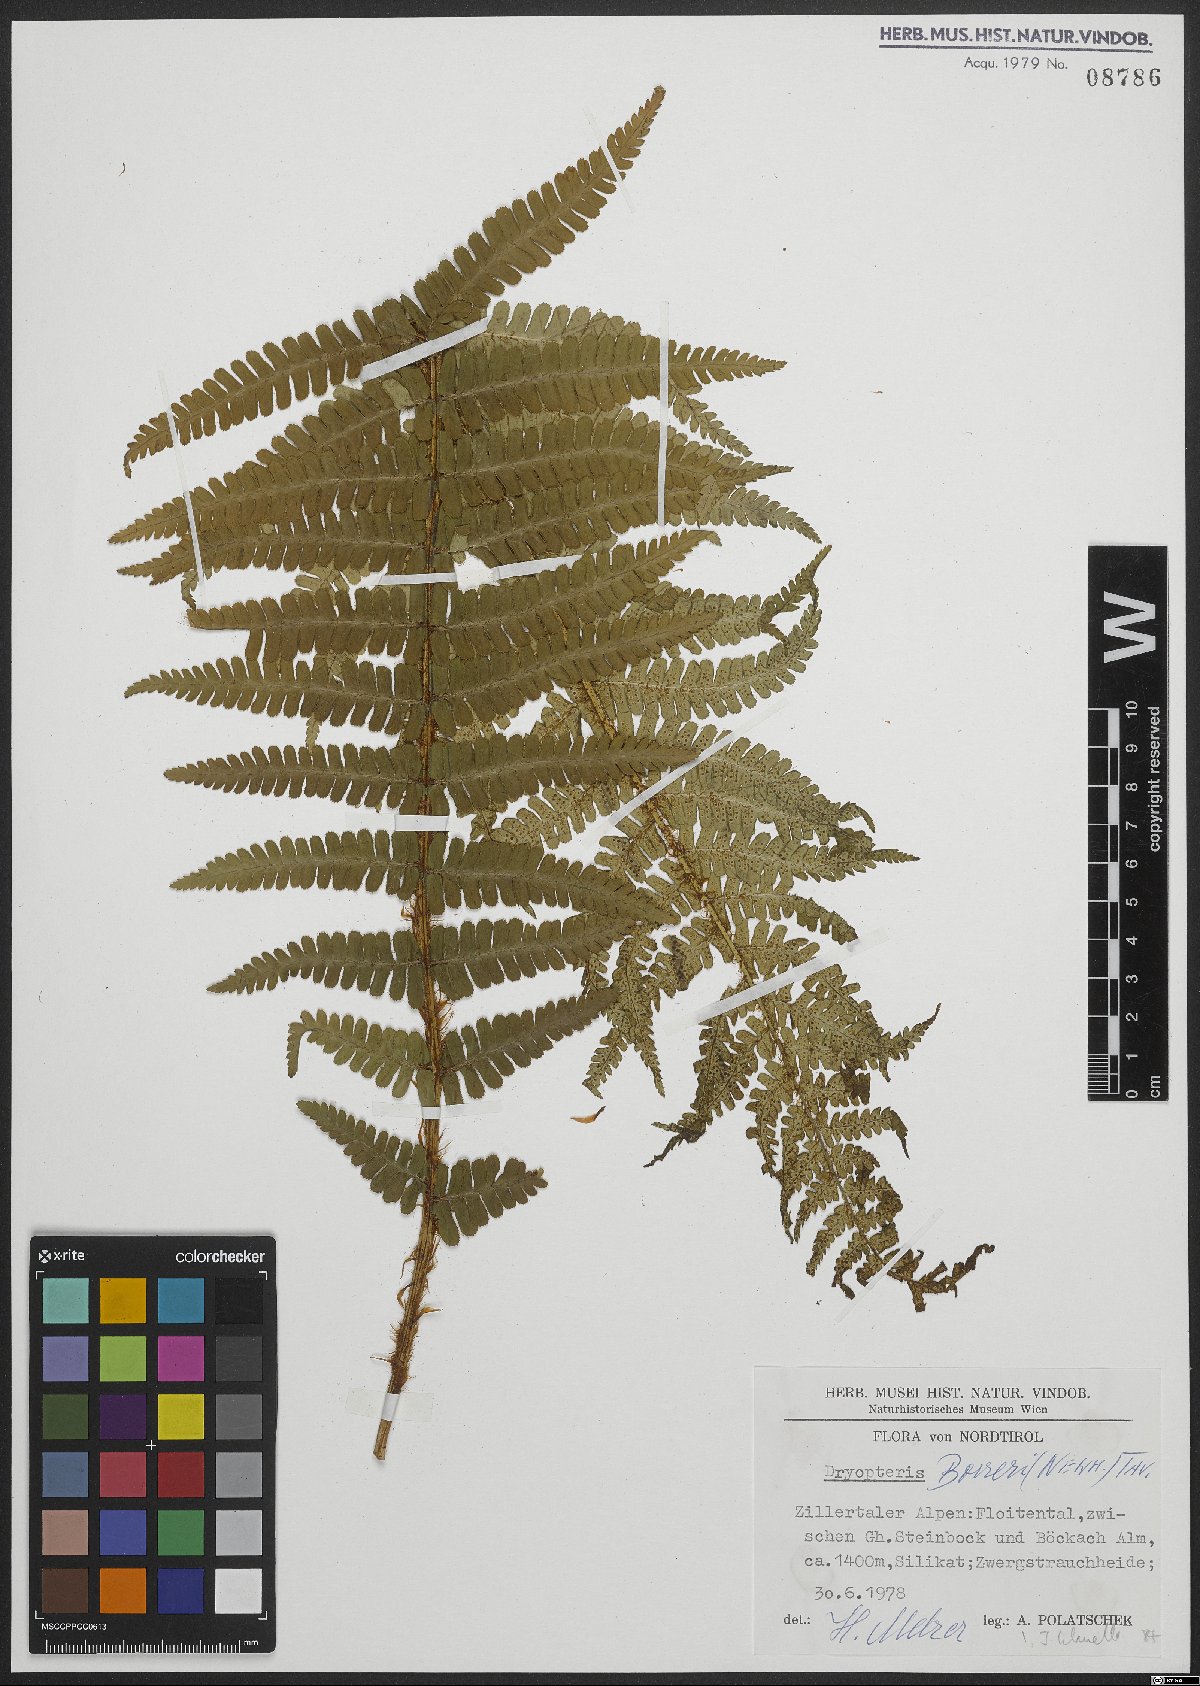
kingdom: Plantae
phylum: Tracheophyta
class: Polypodiopsida
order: Polypodiales
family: Dryopteridaceae
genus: Dryopteris
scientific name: Dryopteris cambrensis
